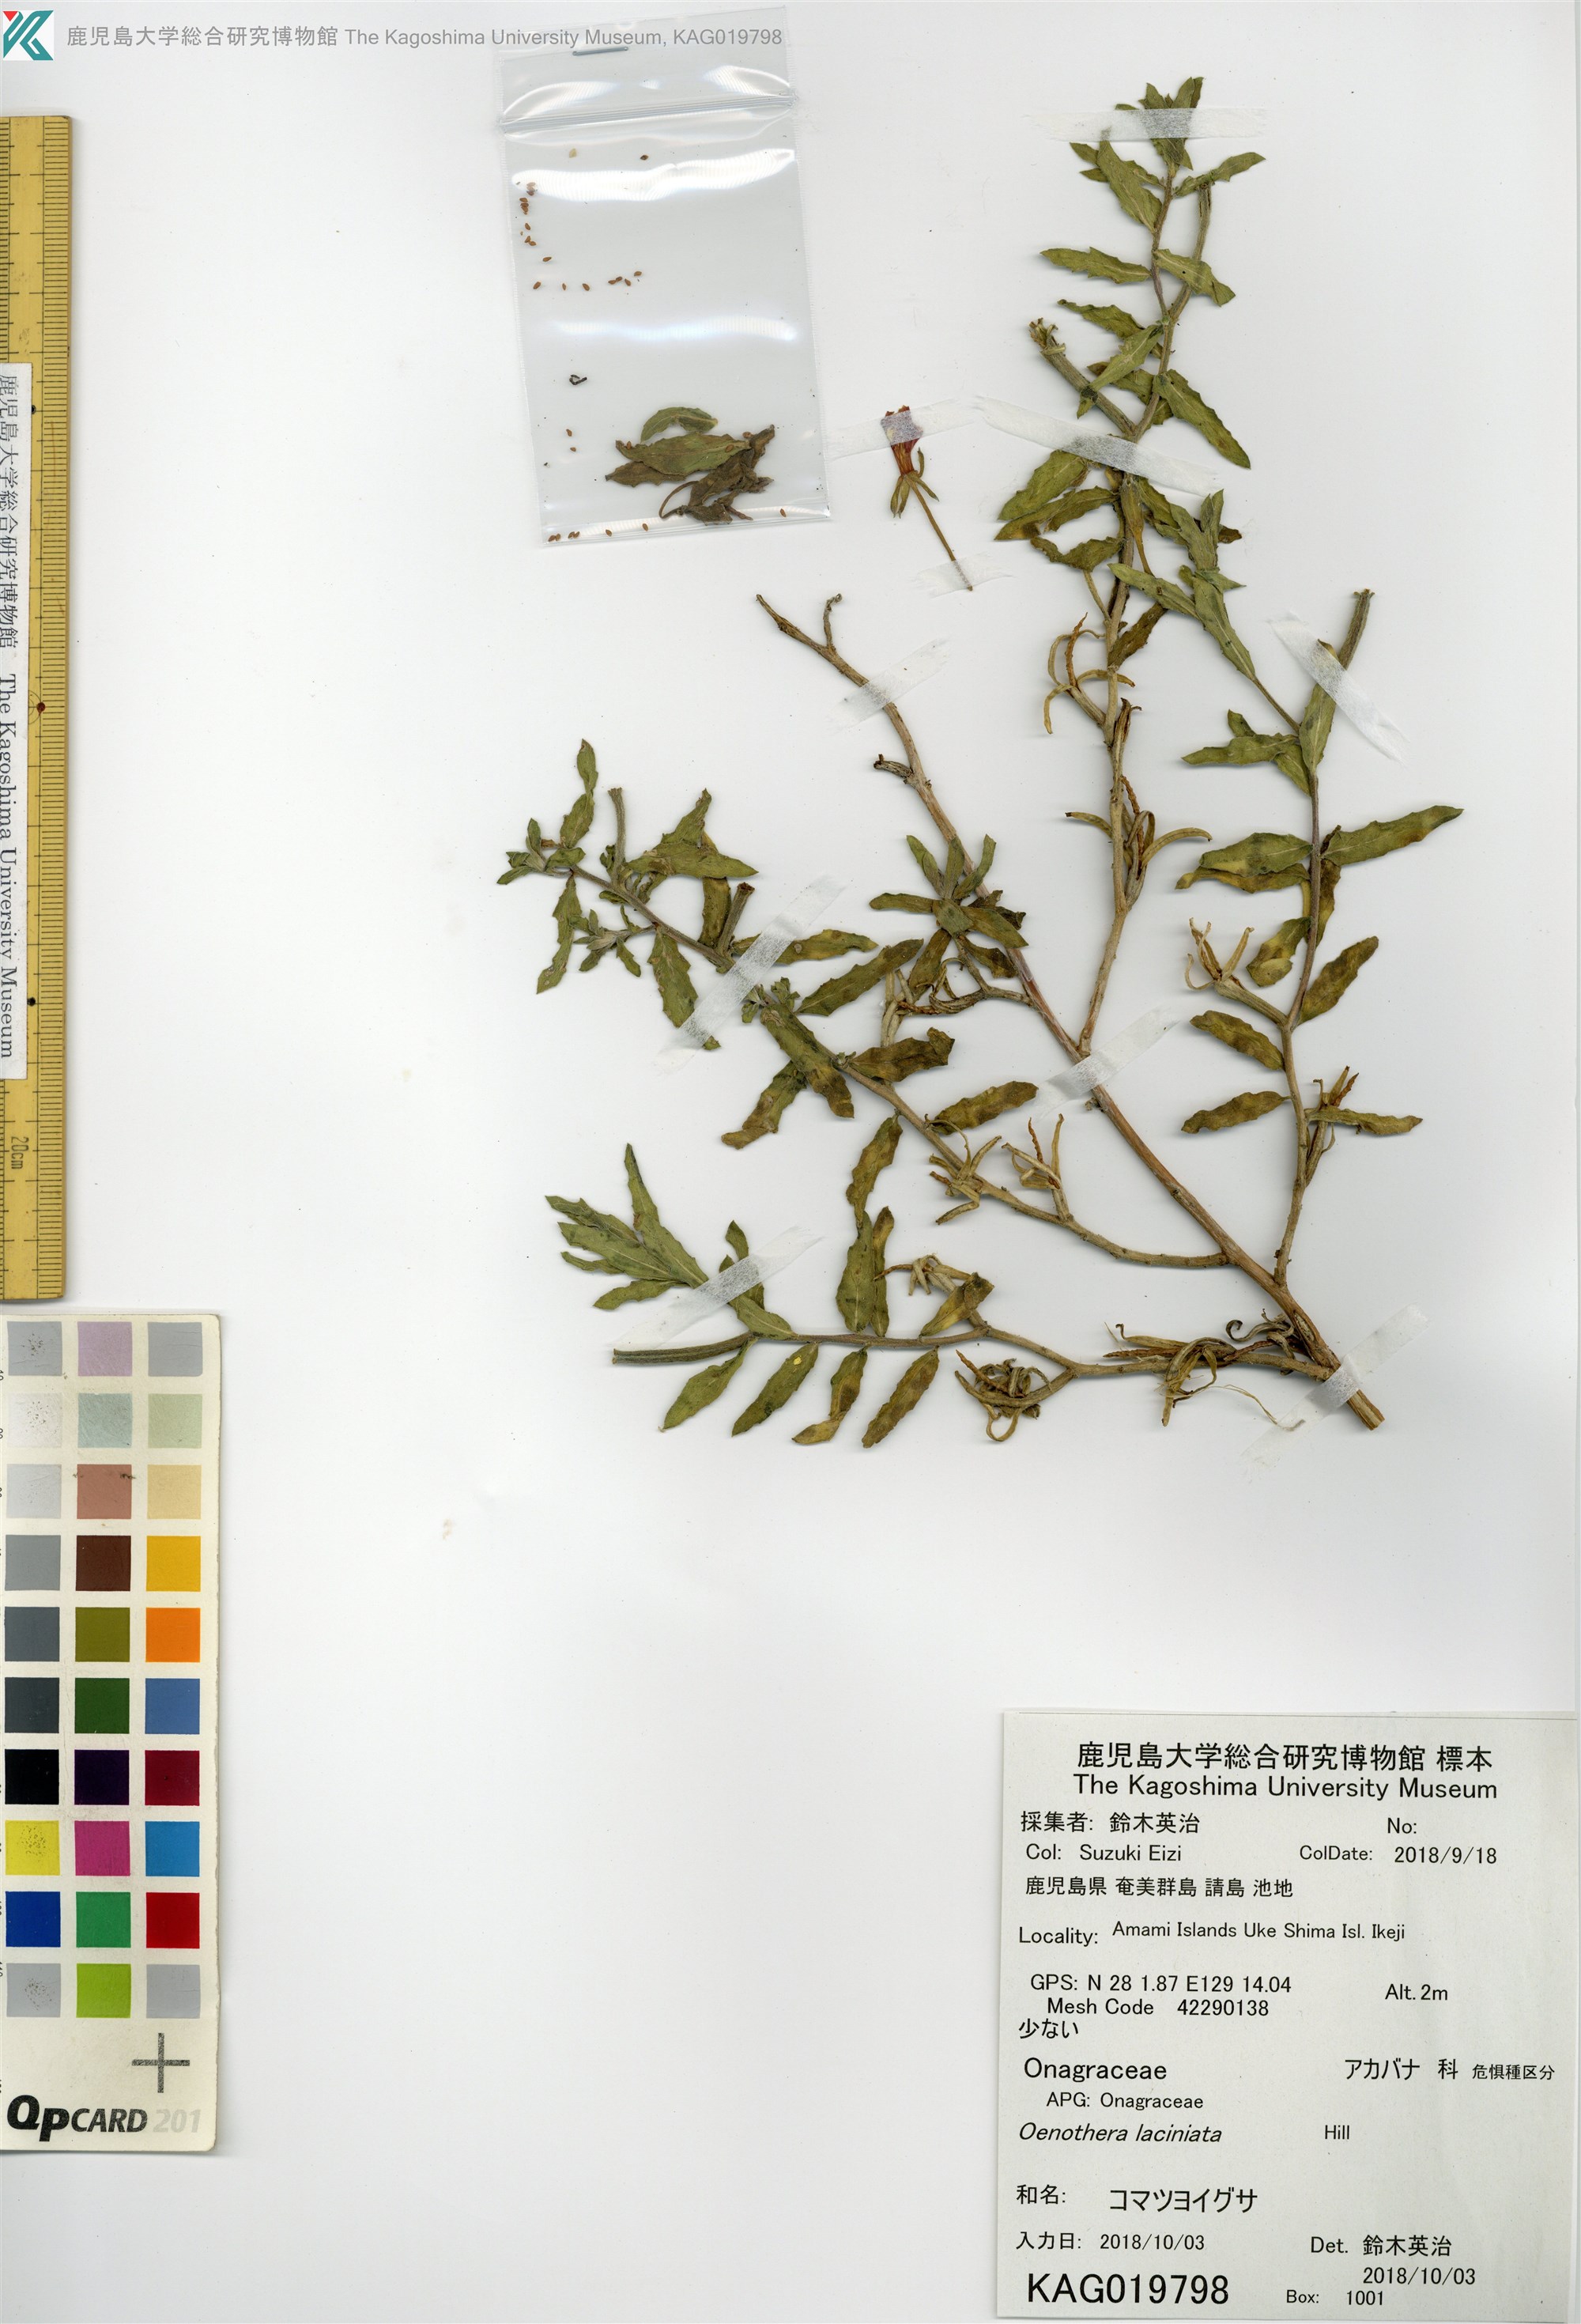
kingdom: Plantae
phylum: Tracheophyta
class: Magnoliopsida
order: Myrtales
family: Onagraceae
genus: Oenothera
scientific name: Oenothera laciniata
